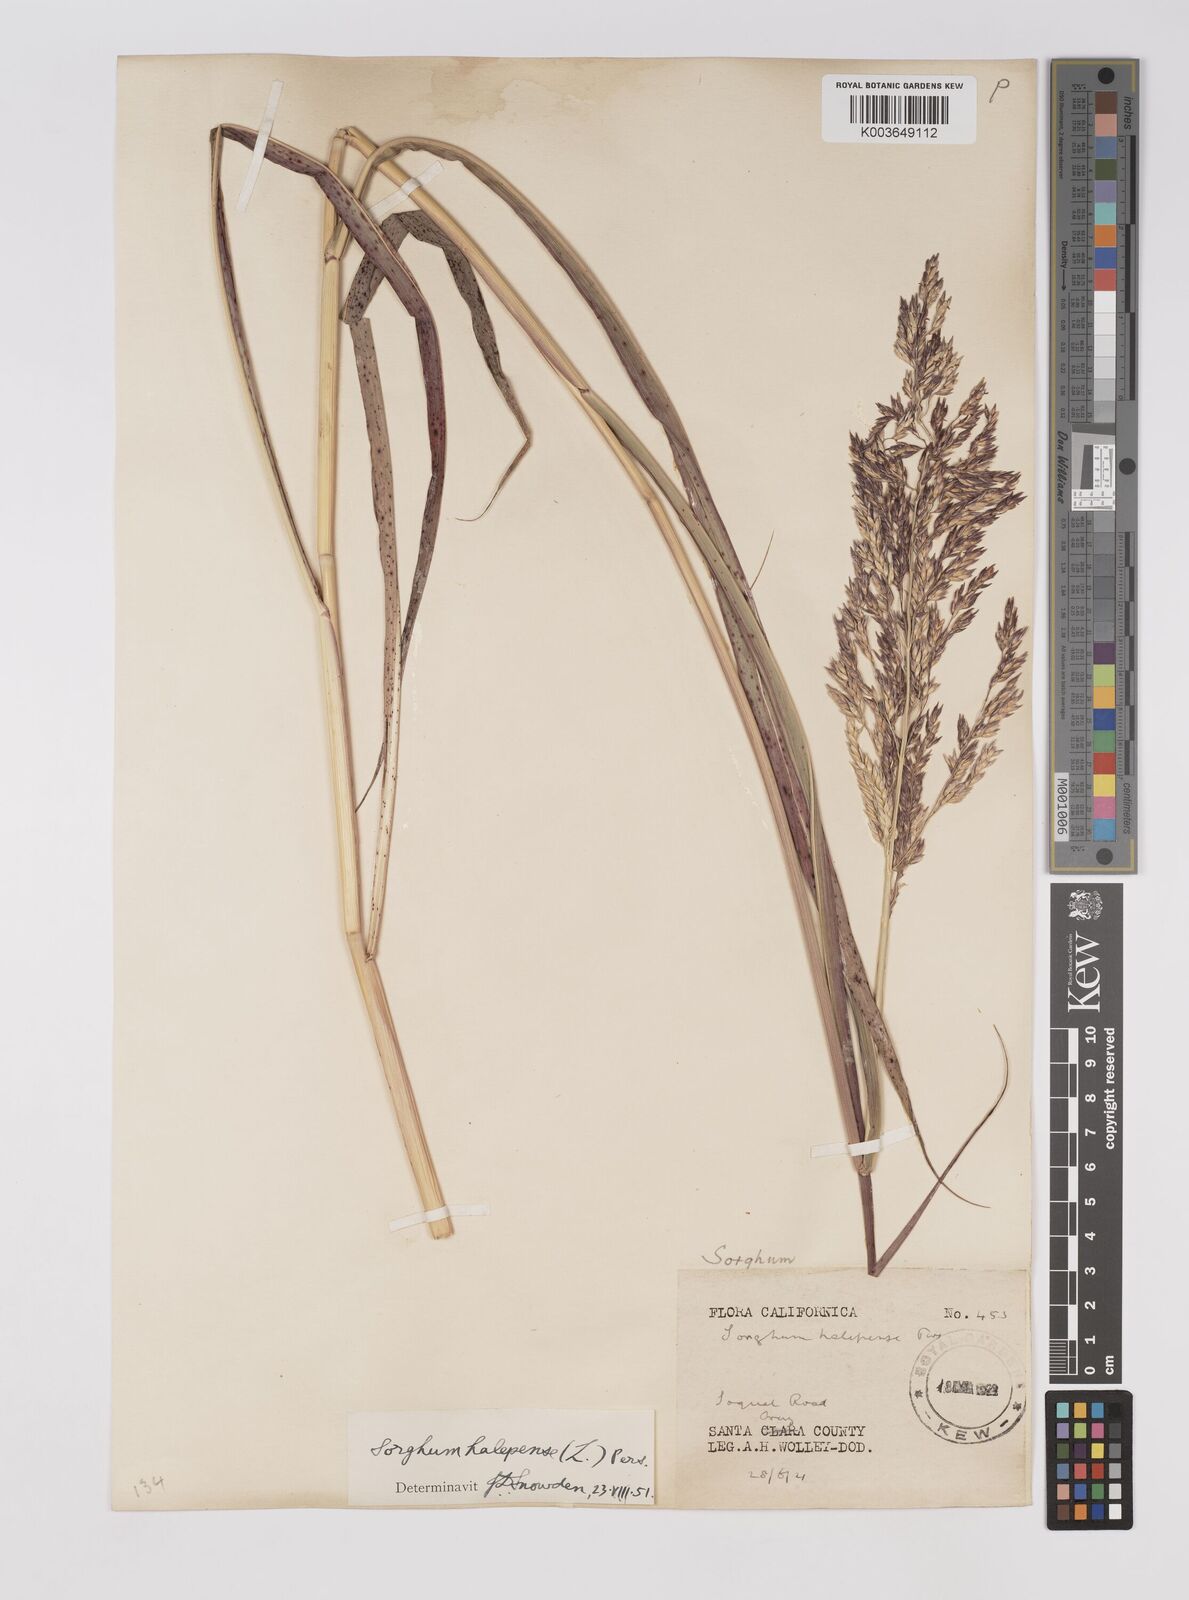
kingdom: Plantae
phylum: Tracheophyta
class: Liliopsida
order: Poales
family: Poaceae
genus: Sorghum
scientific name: Sorghum halepense
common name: Johnson-grass
